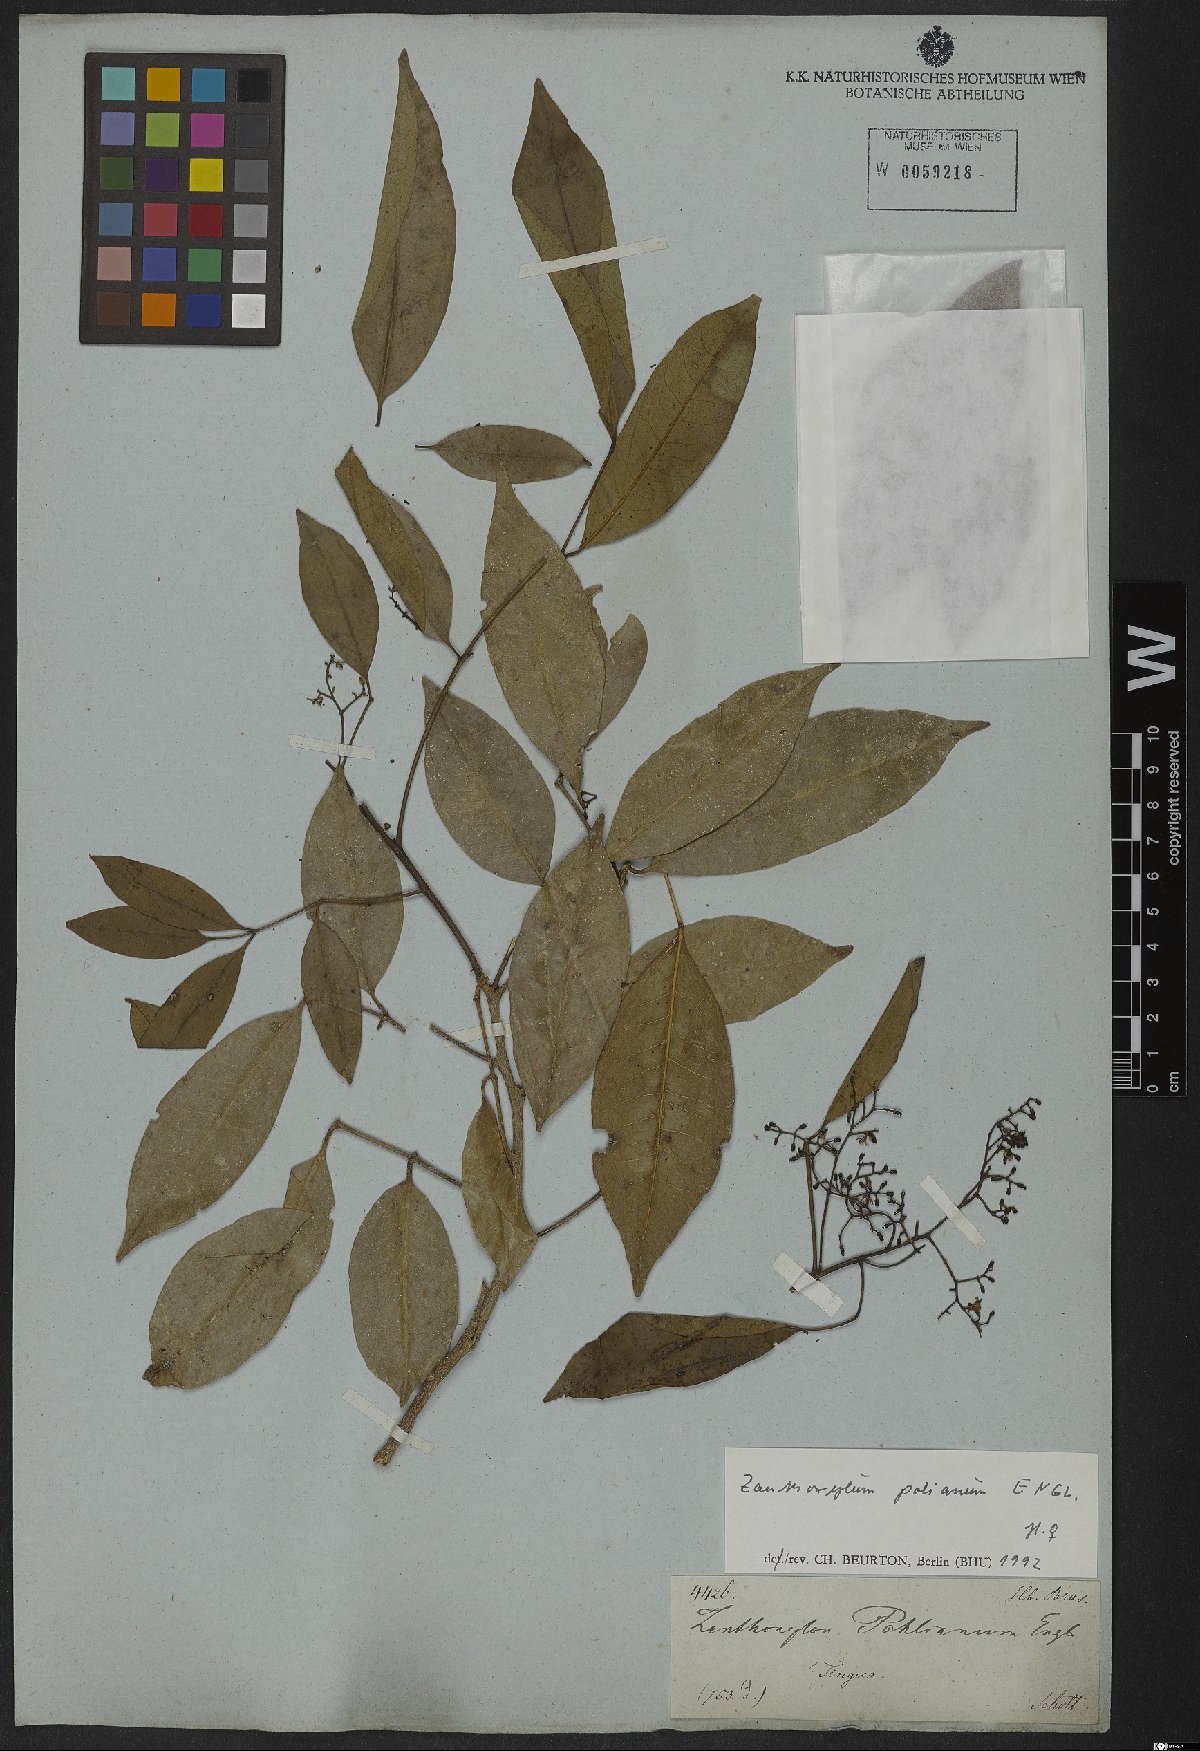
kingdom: Plantae
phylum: Tracheophyta
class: Magnoliopsida
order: Sapindales
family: Rutaceae
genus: Zanthoxylum
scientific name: Zanthoxylum monogynum
